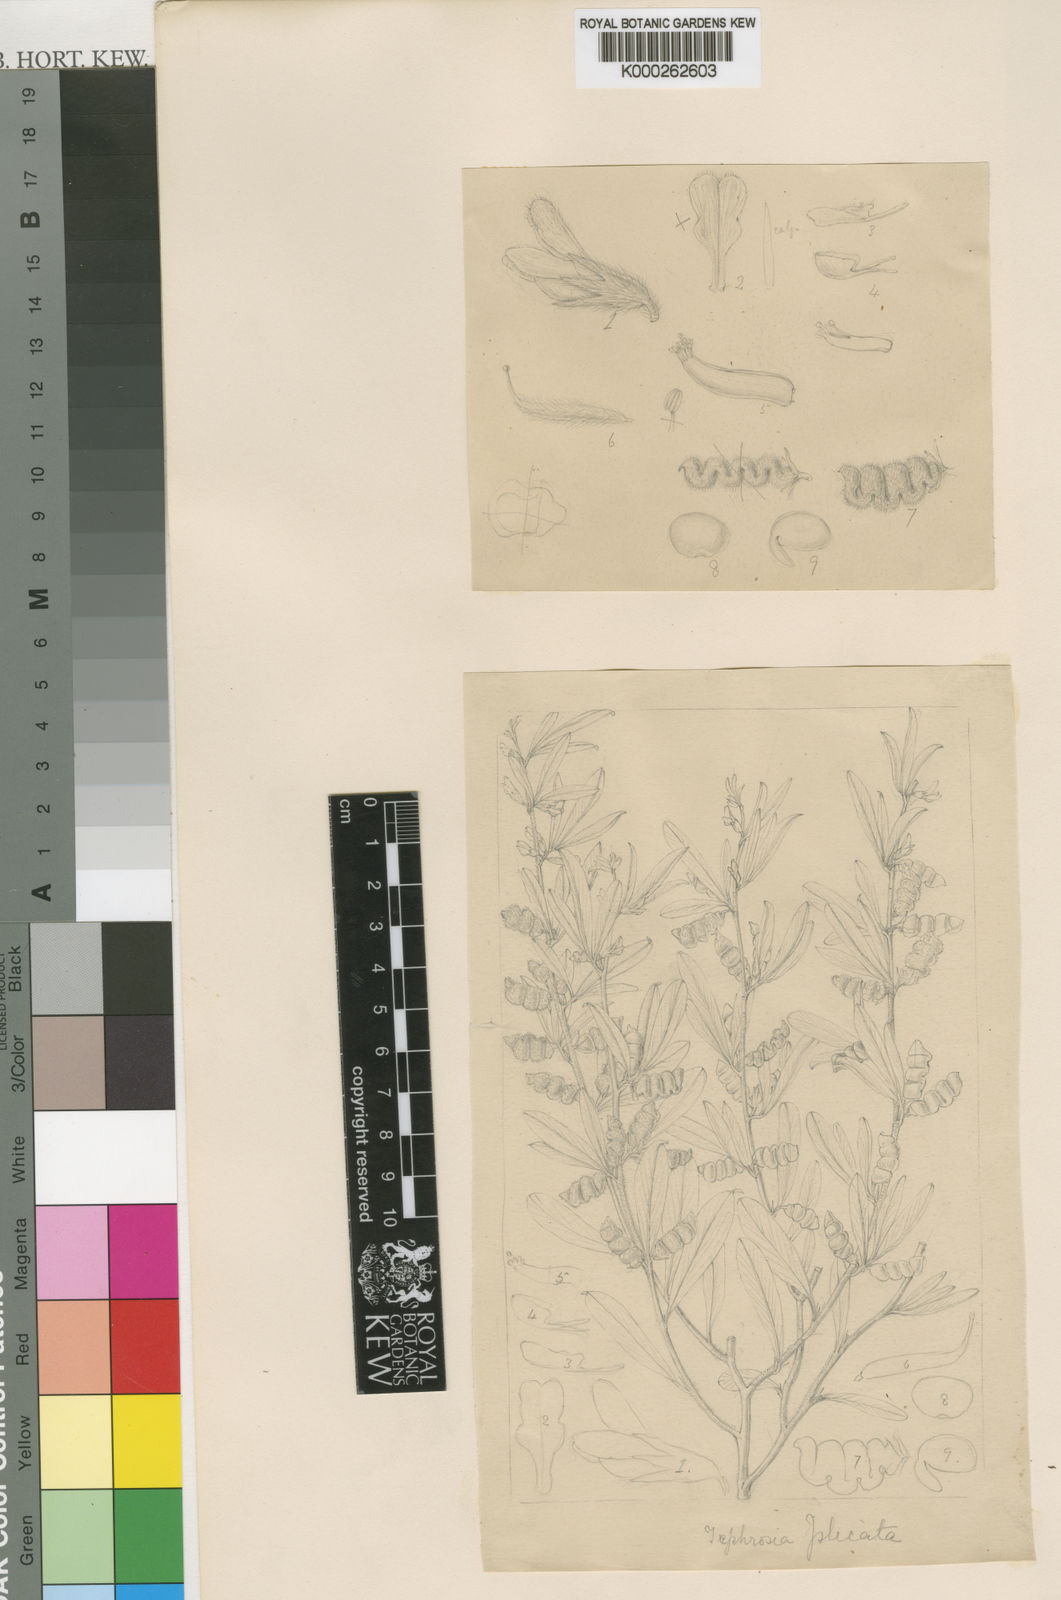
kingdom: Plantae
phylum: Tracheophyta
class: Magnoliopsida
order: Fabales
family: Fabaceae
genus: Ptycholobium
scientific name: Ptycholobium plicatum
